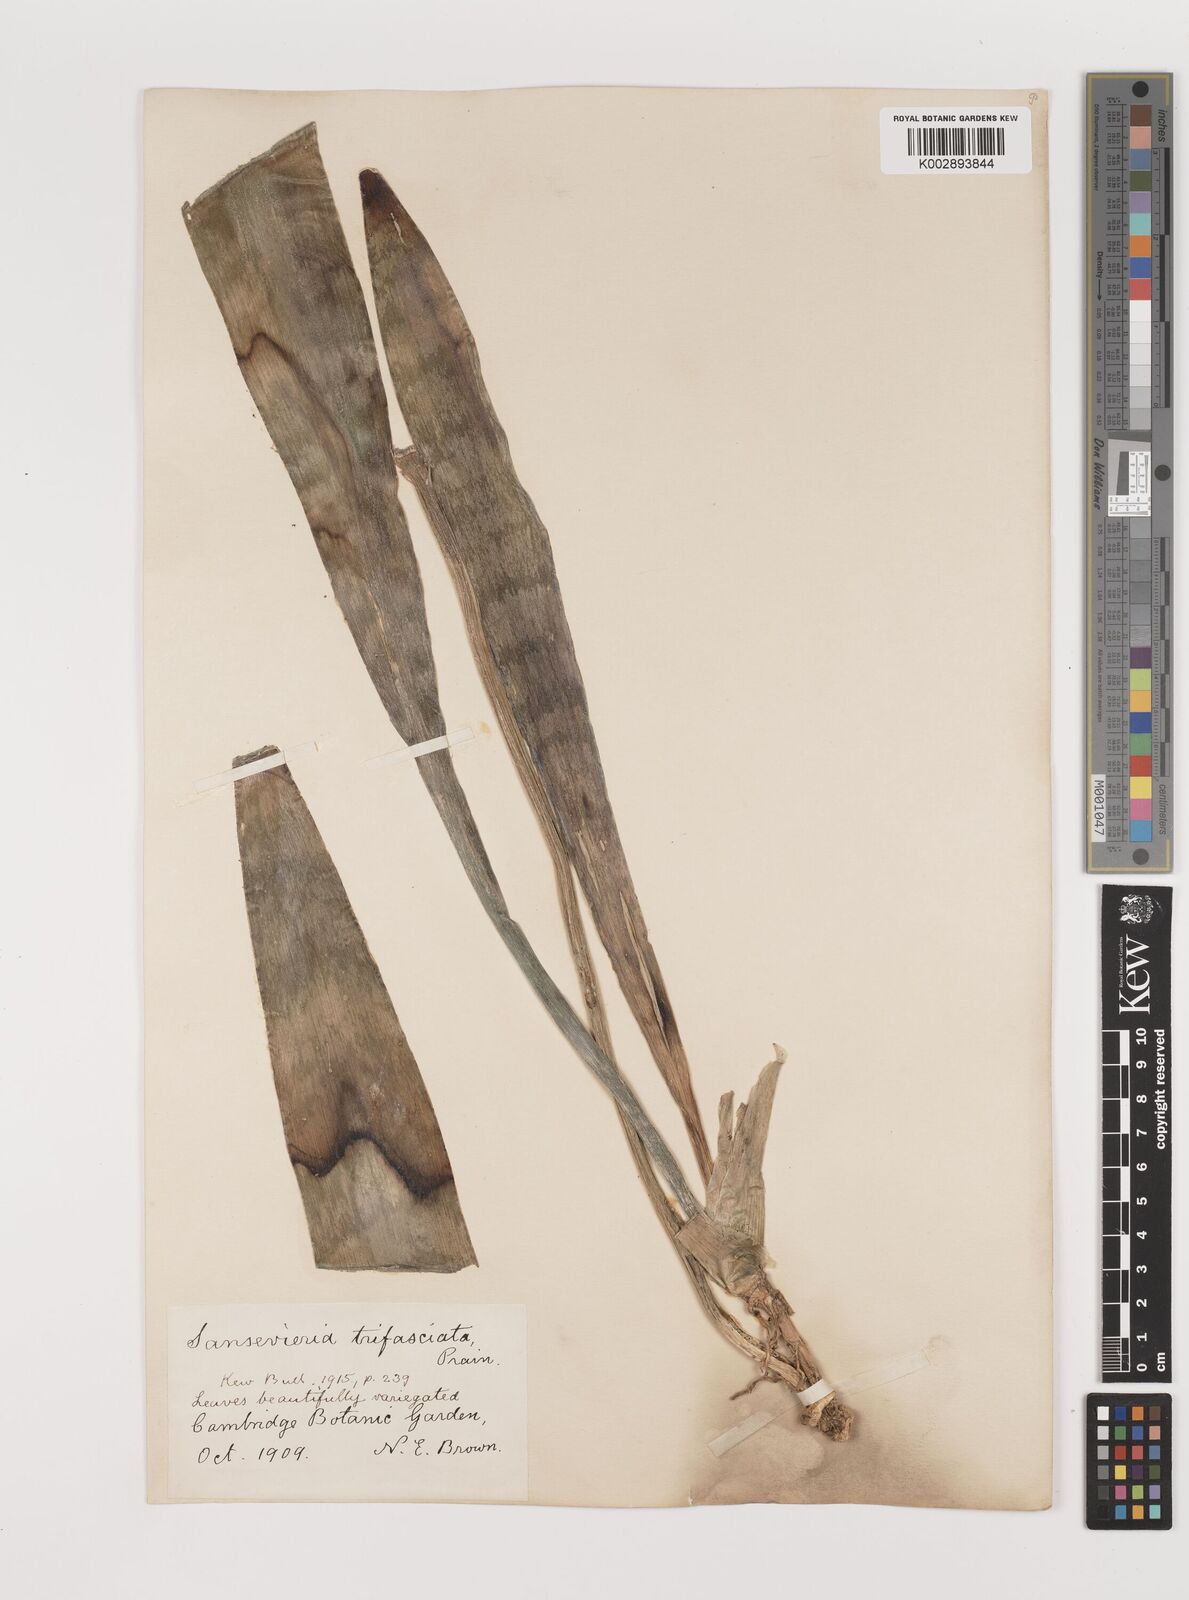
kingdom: Plantae
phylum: Tracheophyta
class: Liliopsida
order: Asparagales
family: Asparagaceae
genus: Dracaena
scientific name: Dracaena trifasciata
